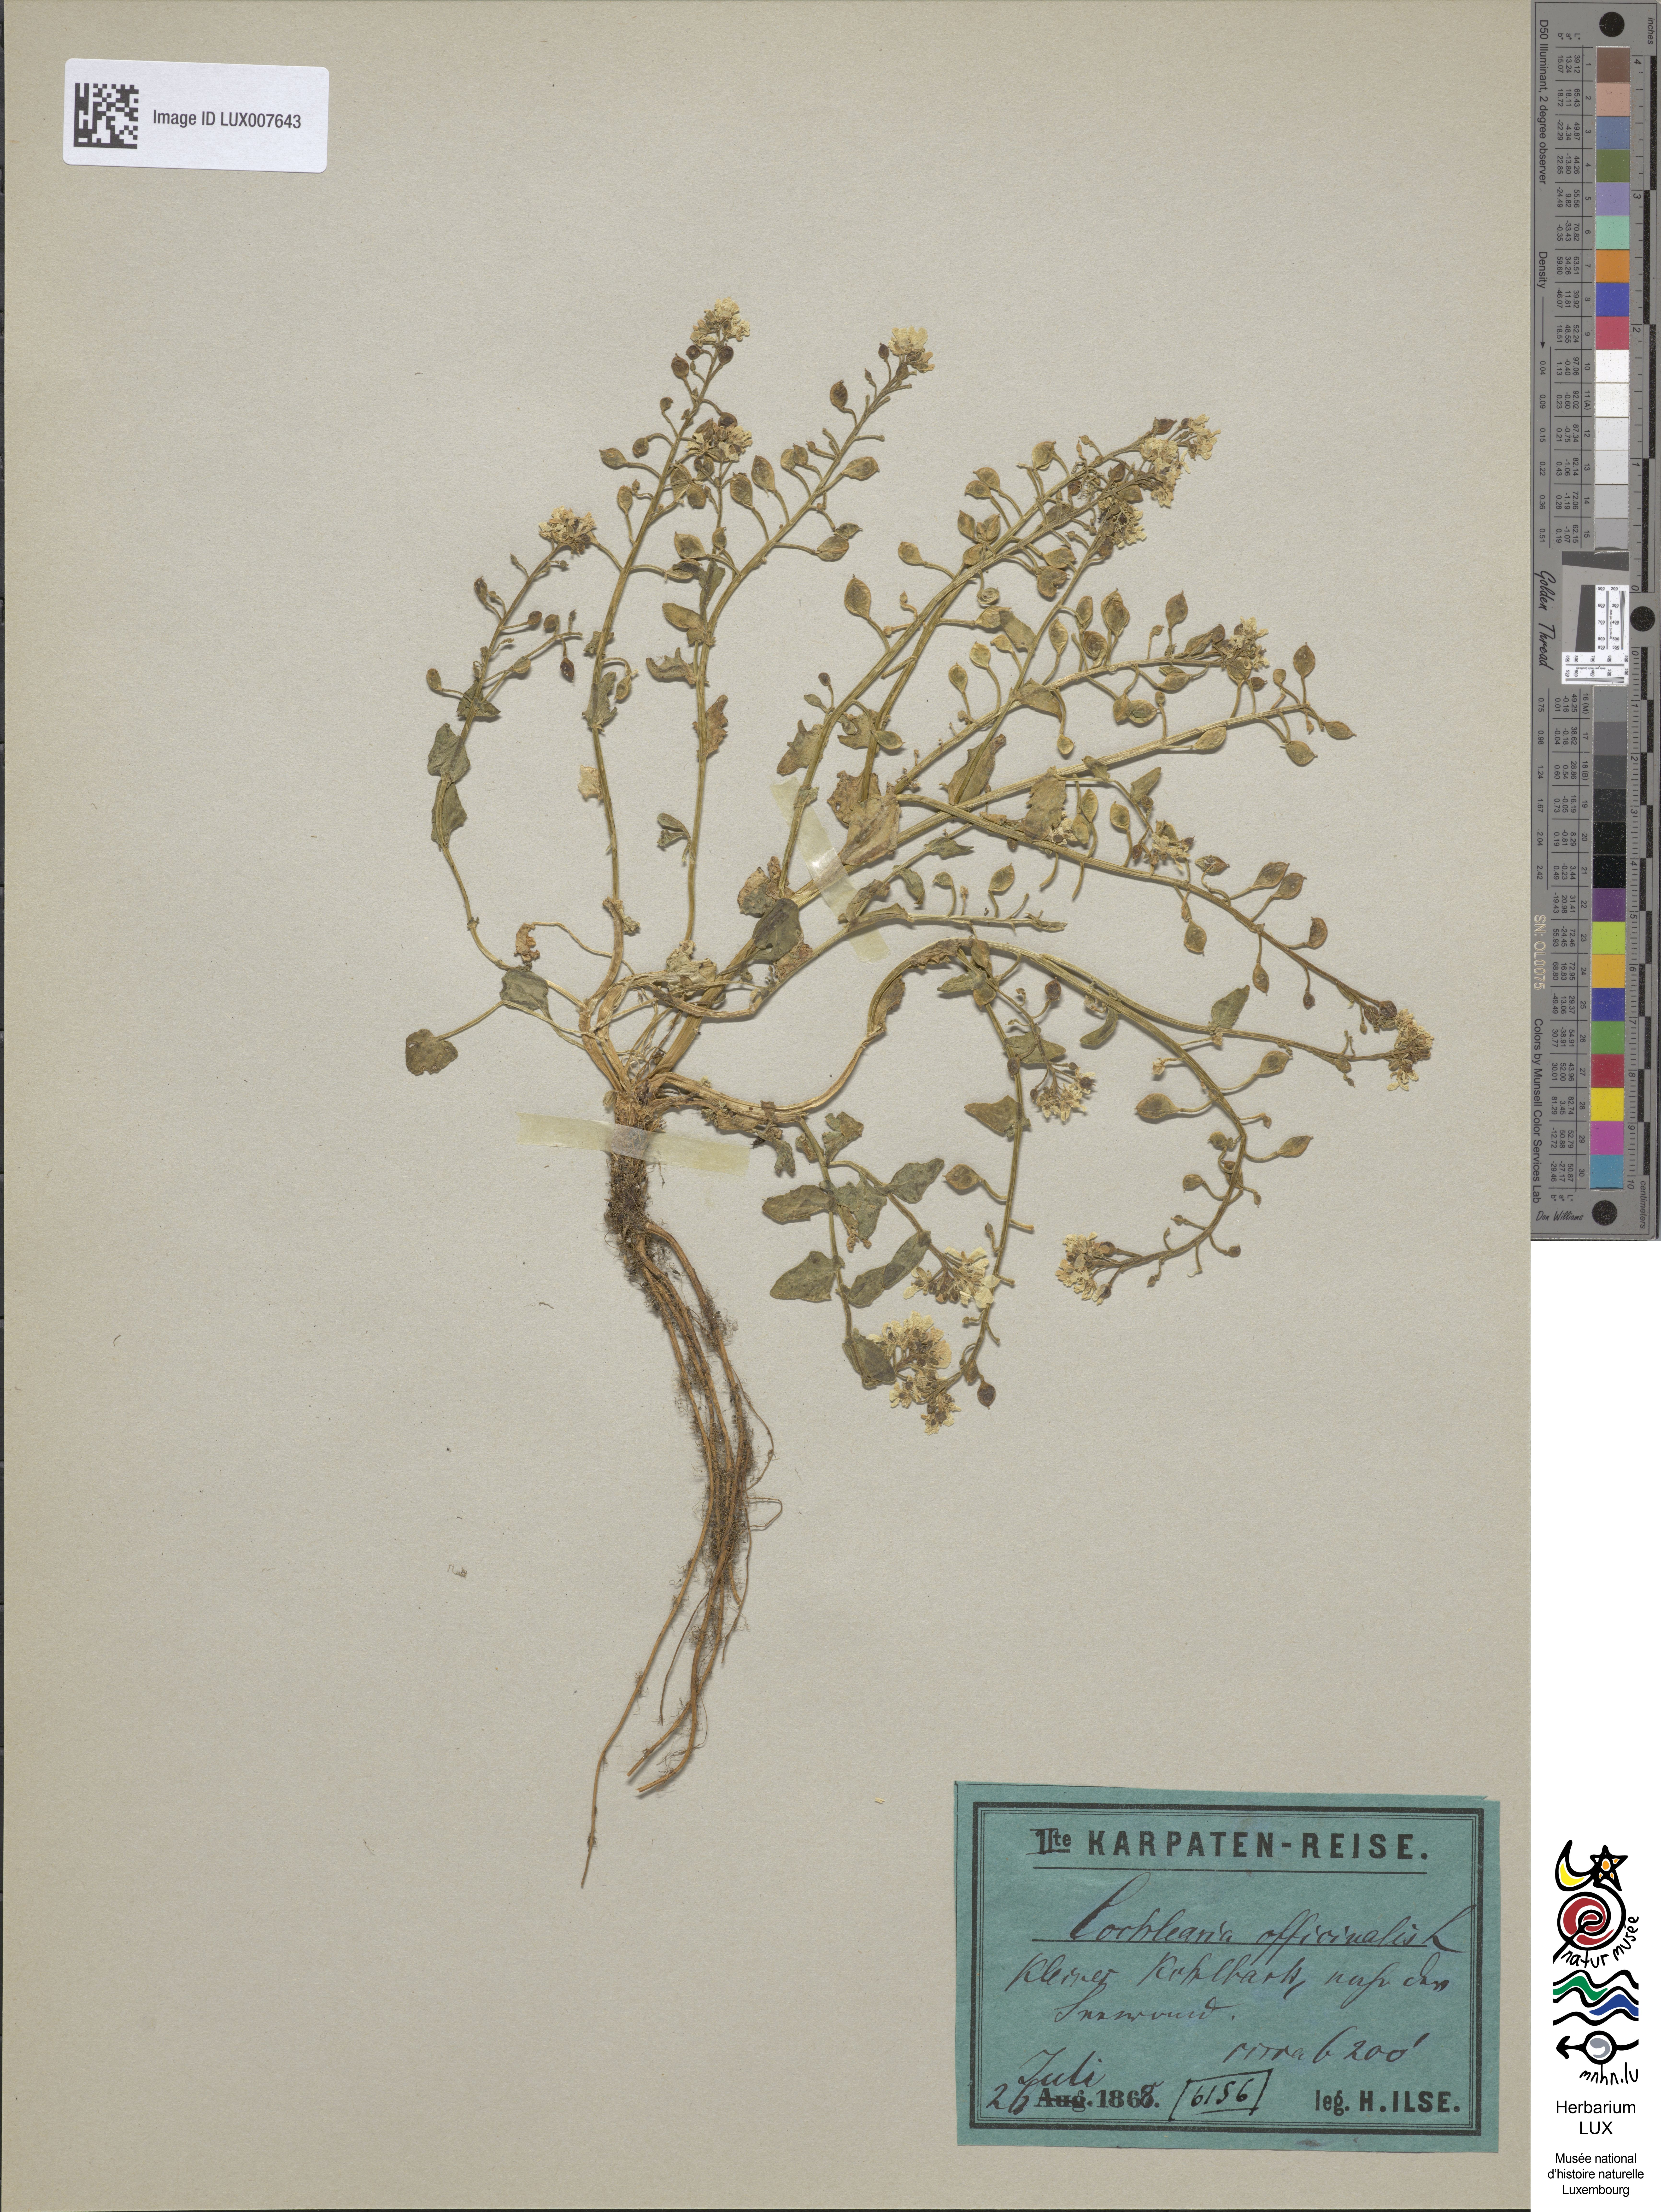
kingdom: Plantae
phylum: Tracheophyta
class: Magnoliopsida
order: Brassicales
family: Brassicaceae
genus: Cochlearia
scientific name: Cochlearia officinalis
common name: Scurvy-grass
